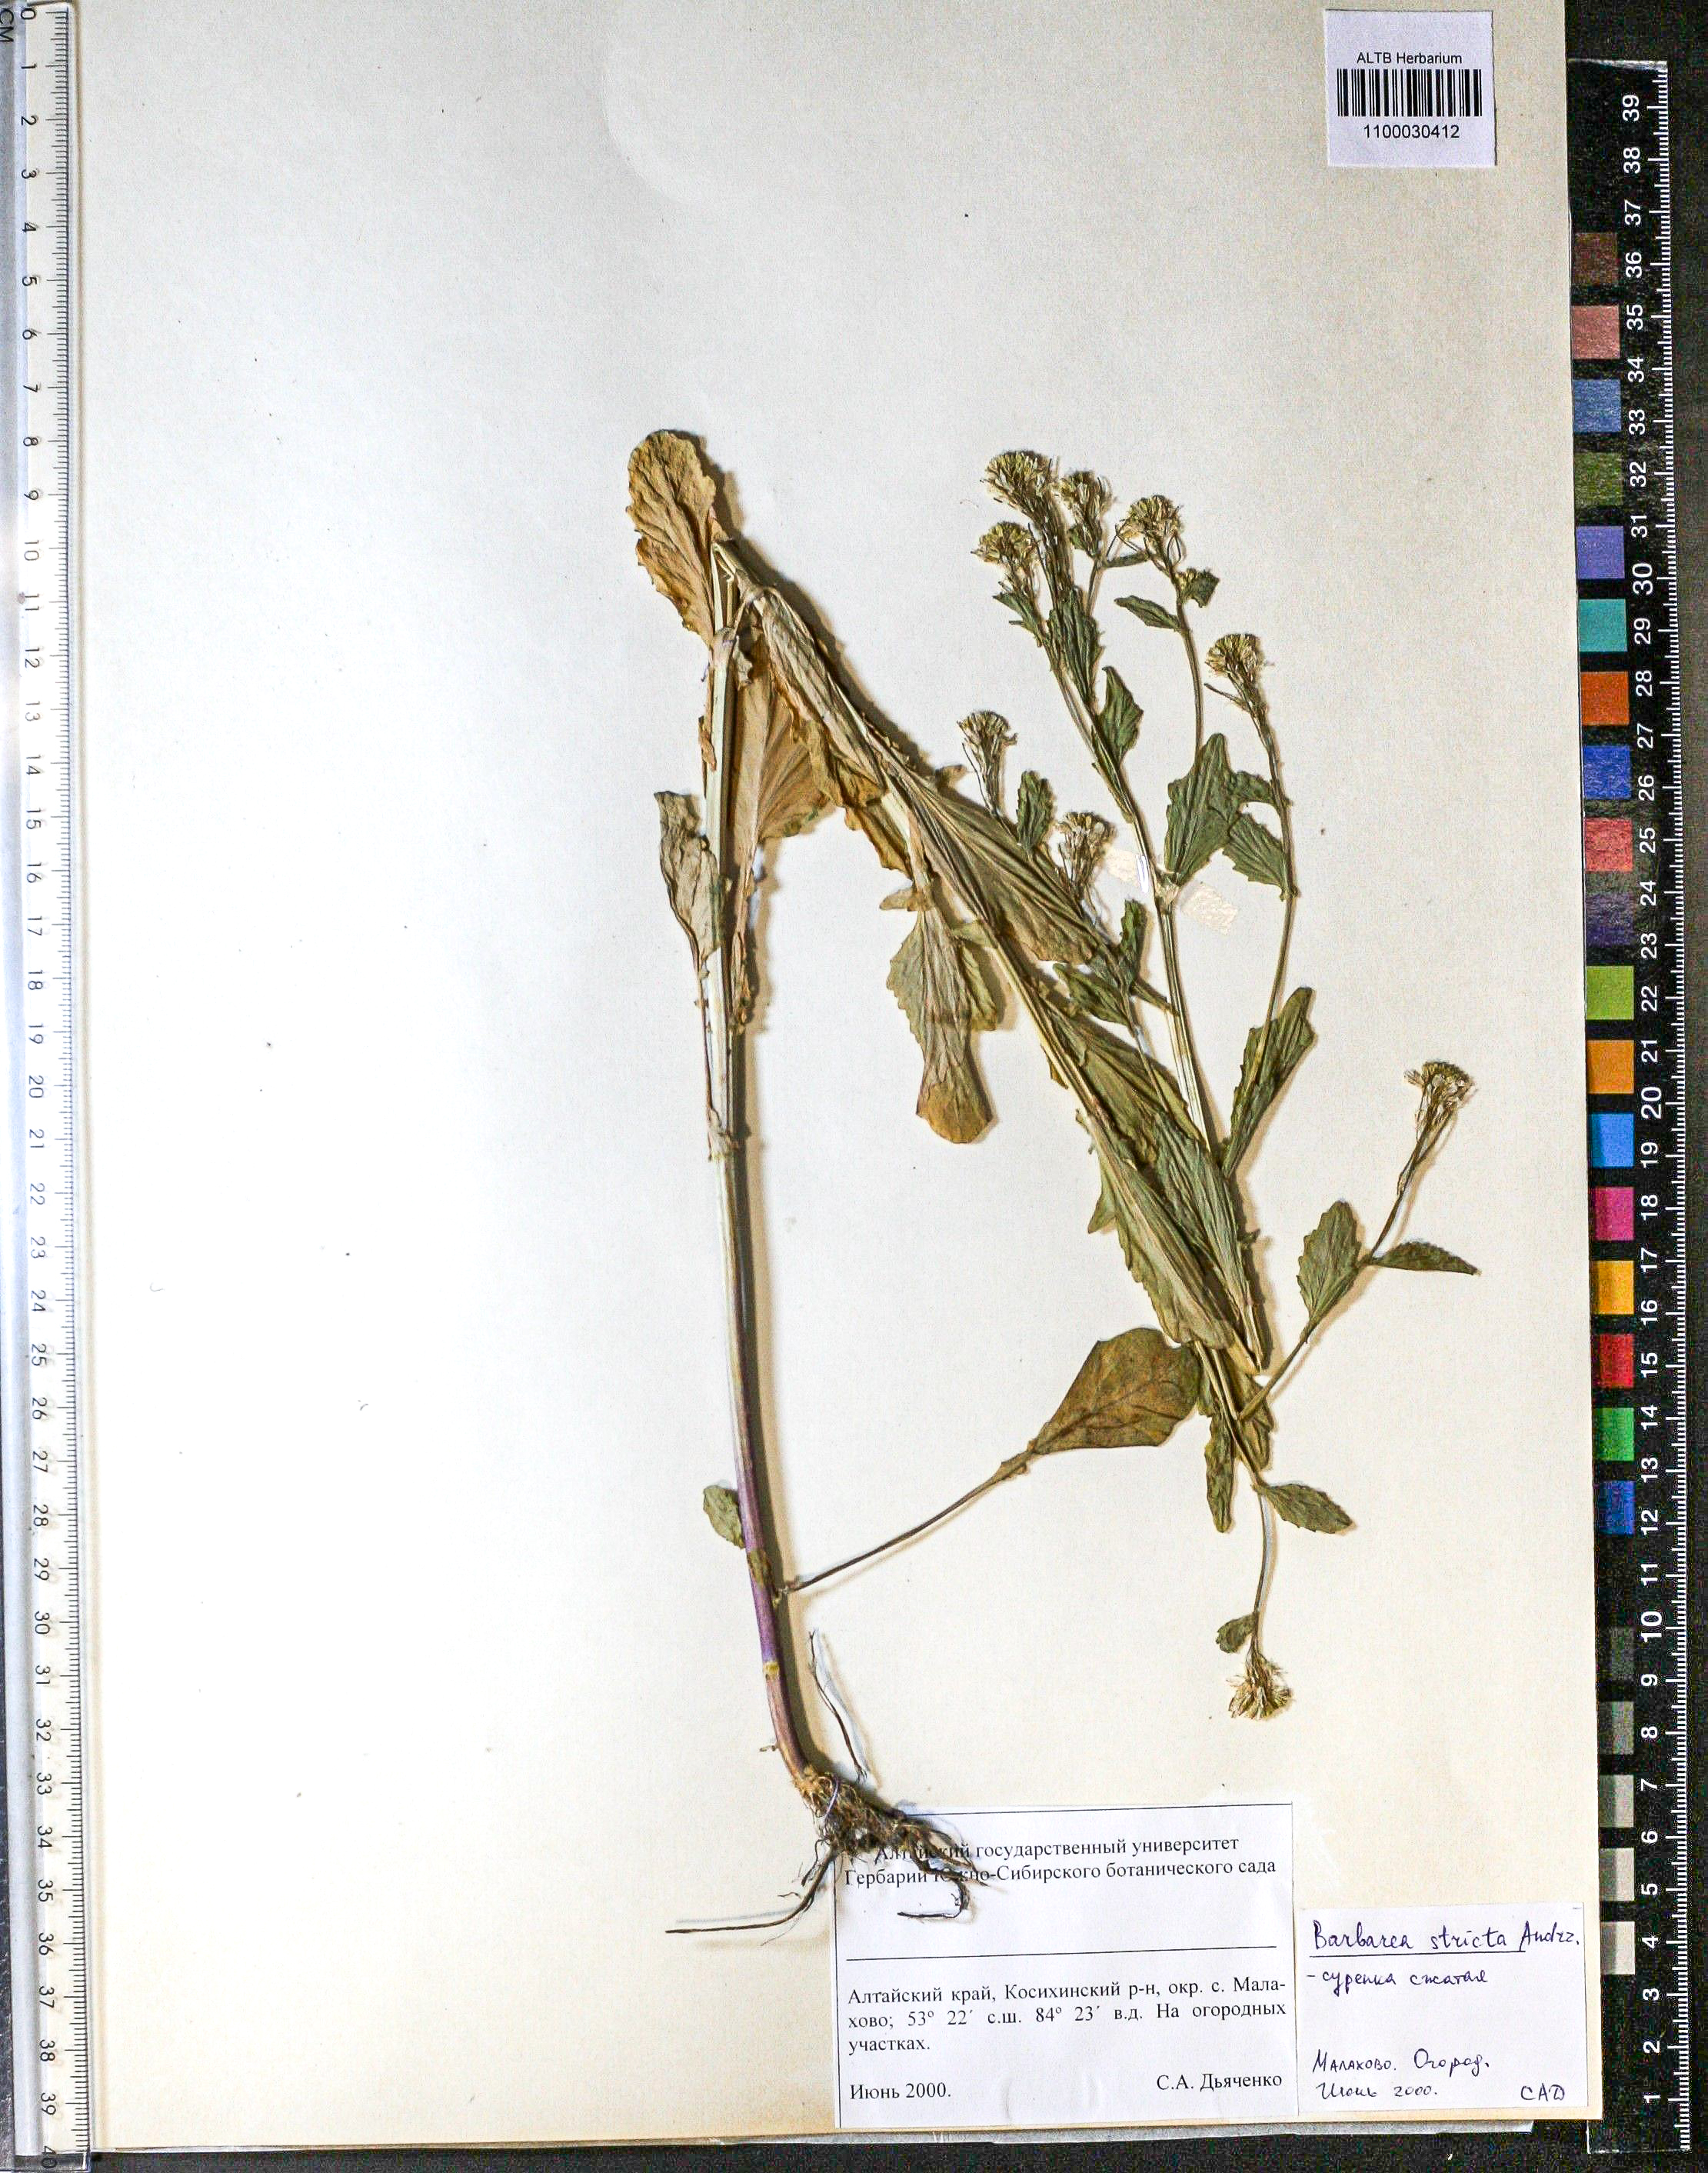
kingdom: Plantae
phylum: Tracheophyta
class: Magnoliopsida
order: Brassicales
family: Brassicaceae
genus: Barbarea
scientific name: Barbarea vulgaris
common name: Cressy-greens
